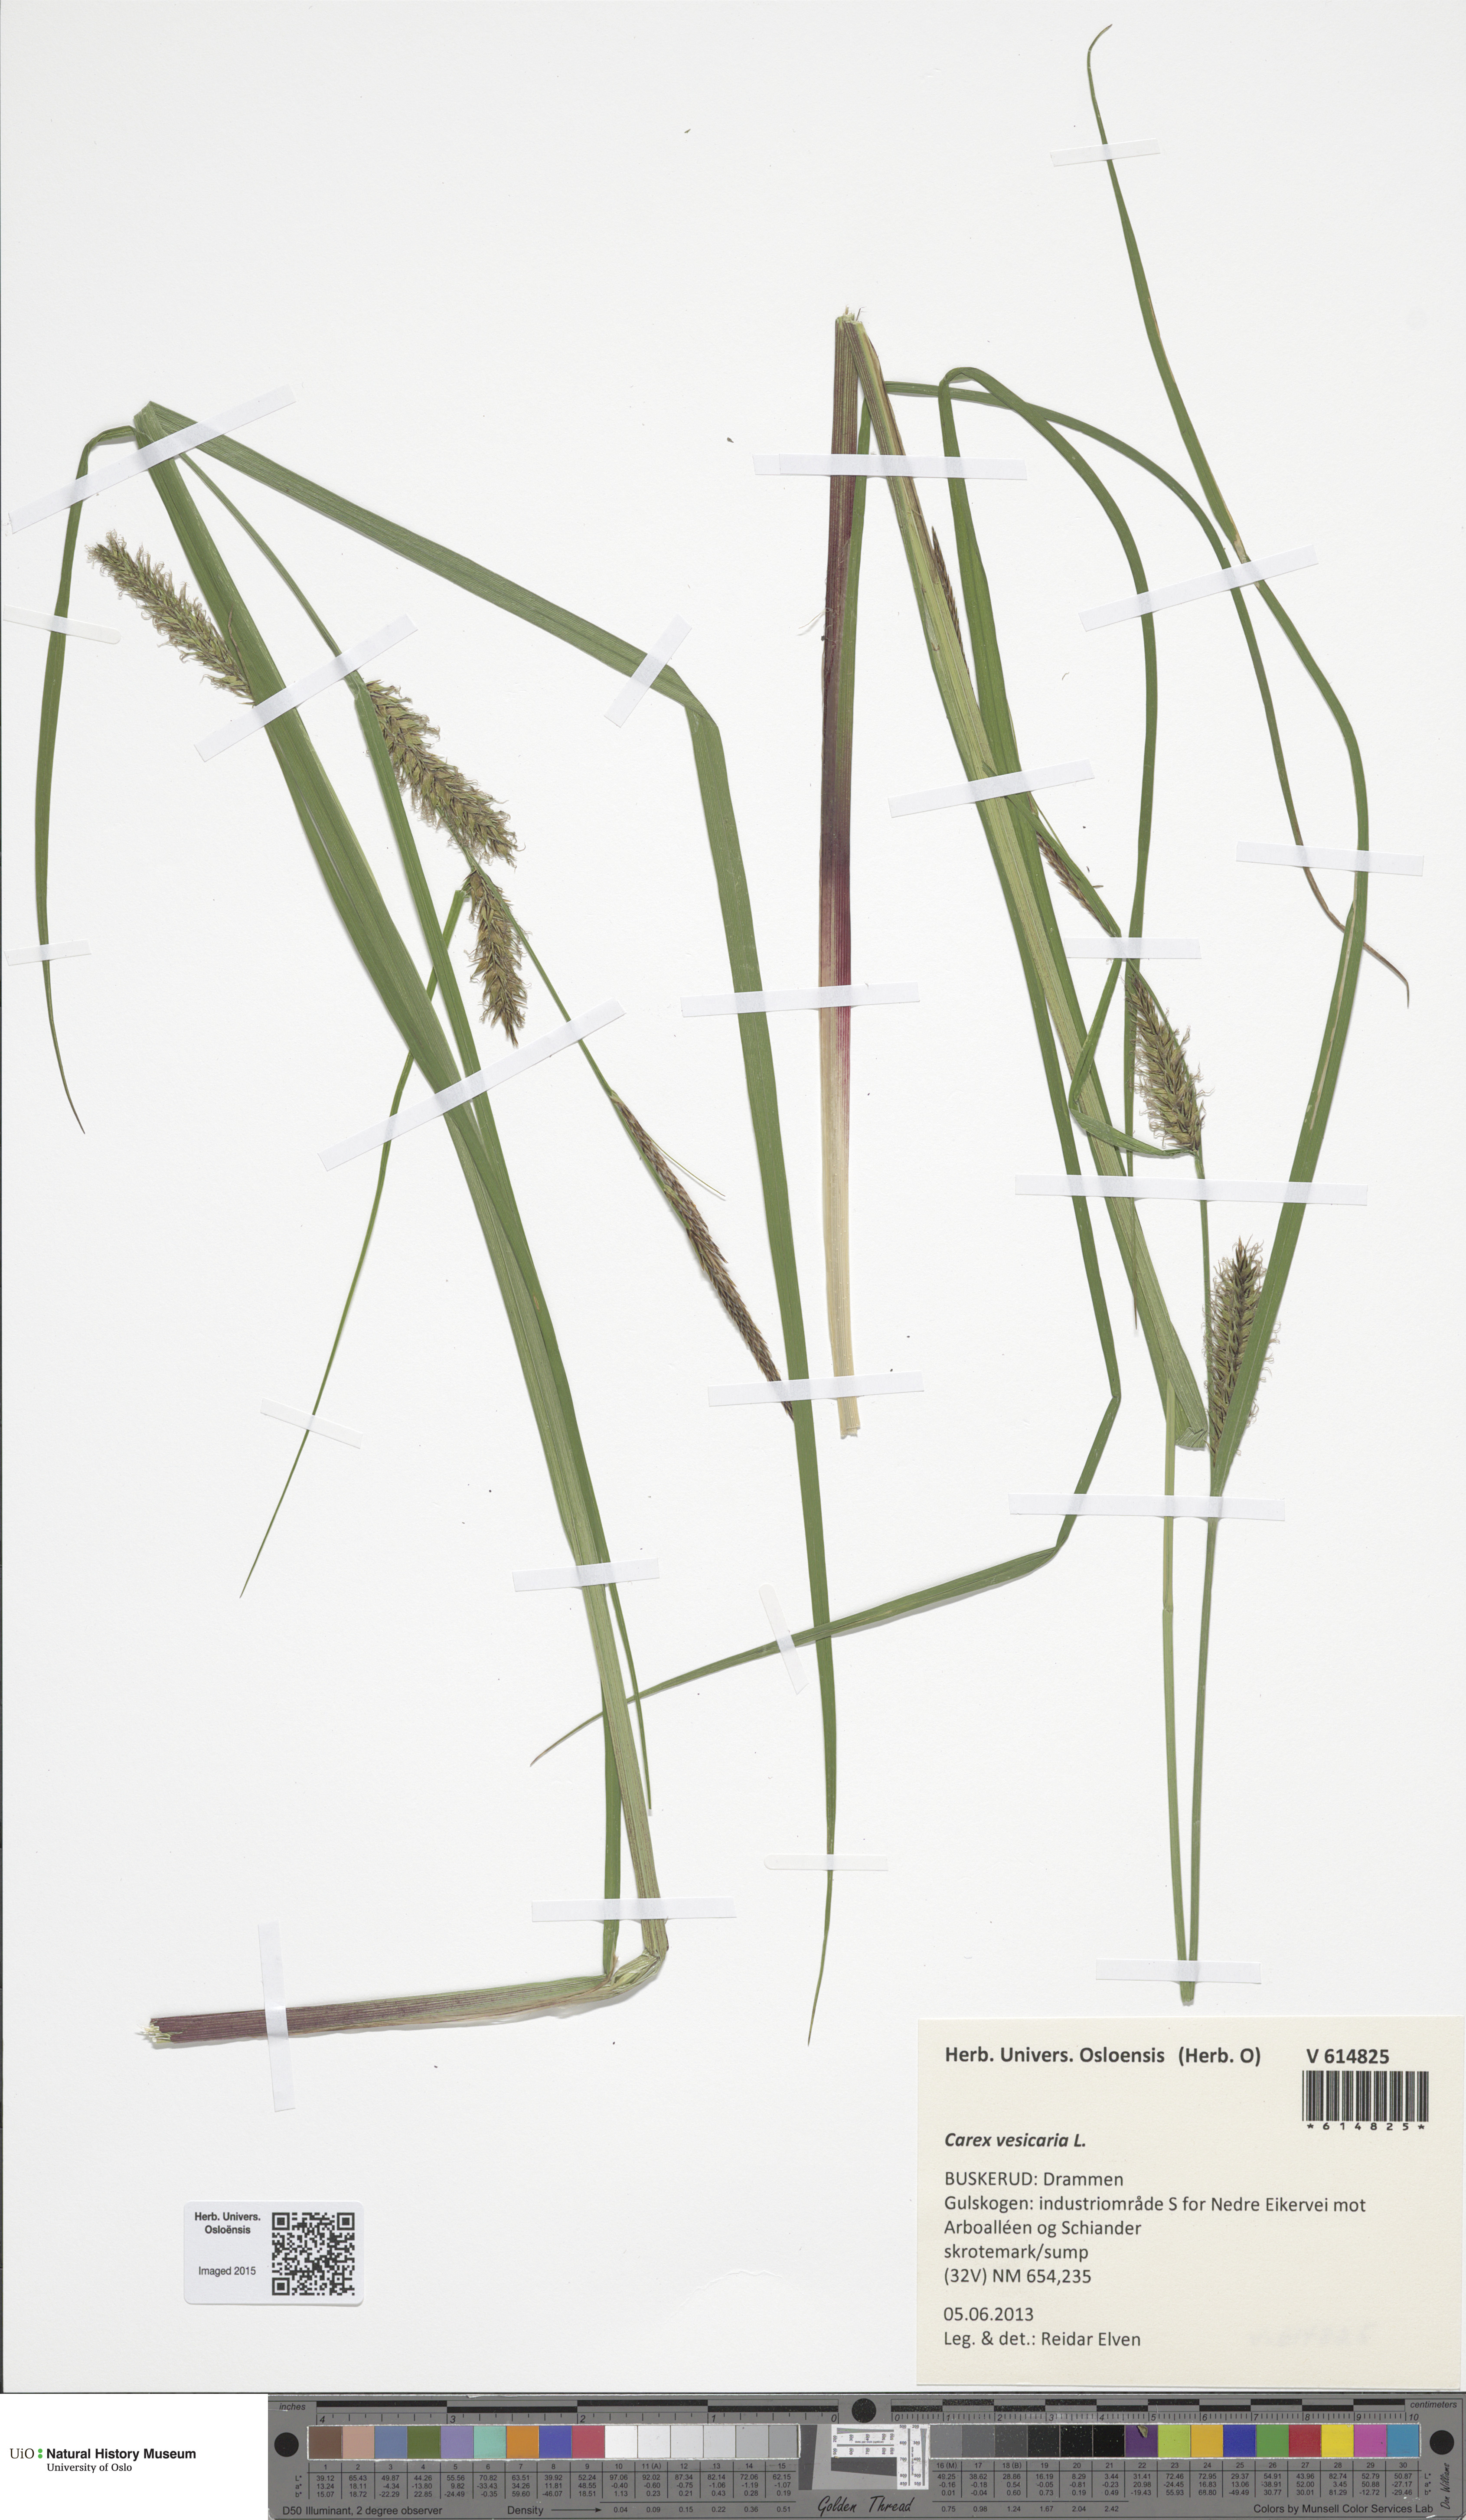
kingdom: Plantae
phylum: Tracheophyta
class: Liliopsida
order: Poales
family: Cyperaceae
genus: Carex
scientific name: Carex vesicaria
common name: Bladder-sedge
